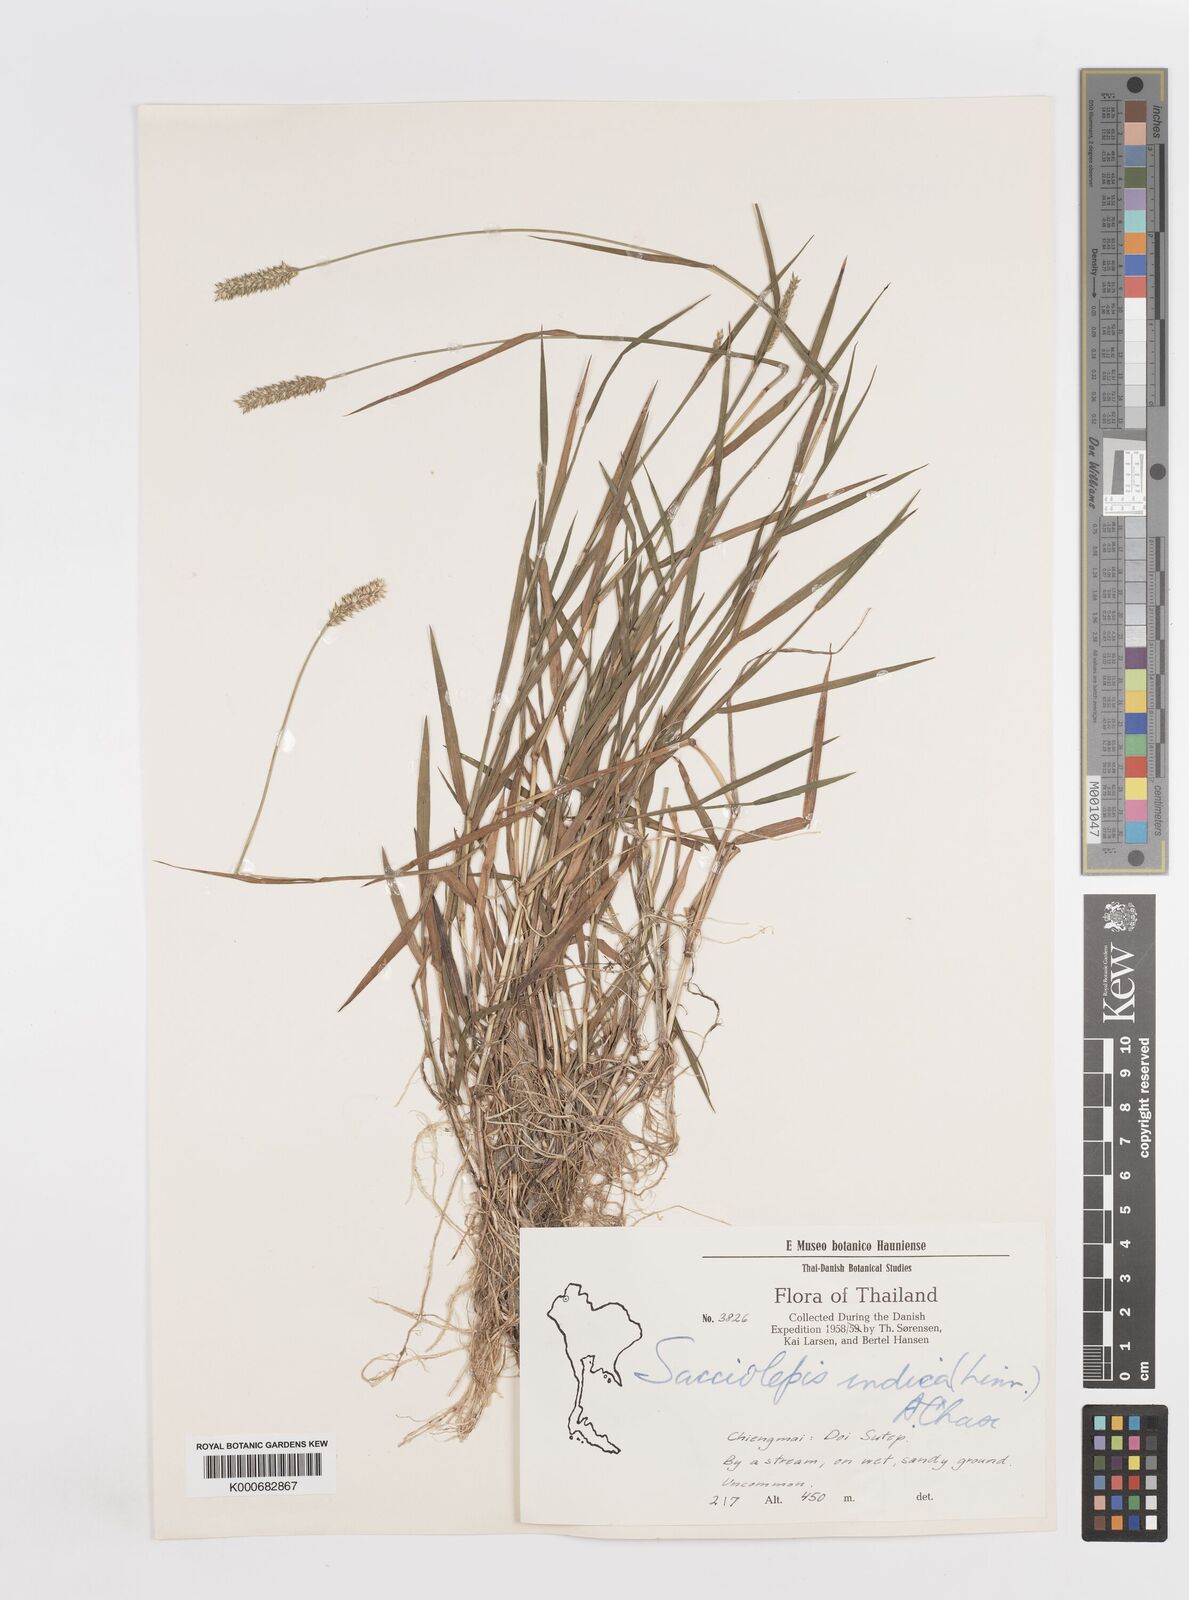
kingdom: Plantae
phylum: Tracheophyta
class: Liliopsida
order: Poales
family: Poaceae
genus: Sacciolepis
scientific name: Sacciolepis indica
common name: Glenwoodgrass
